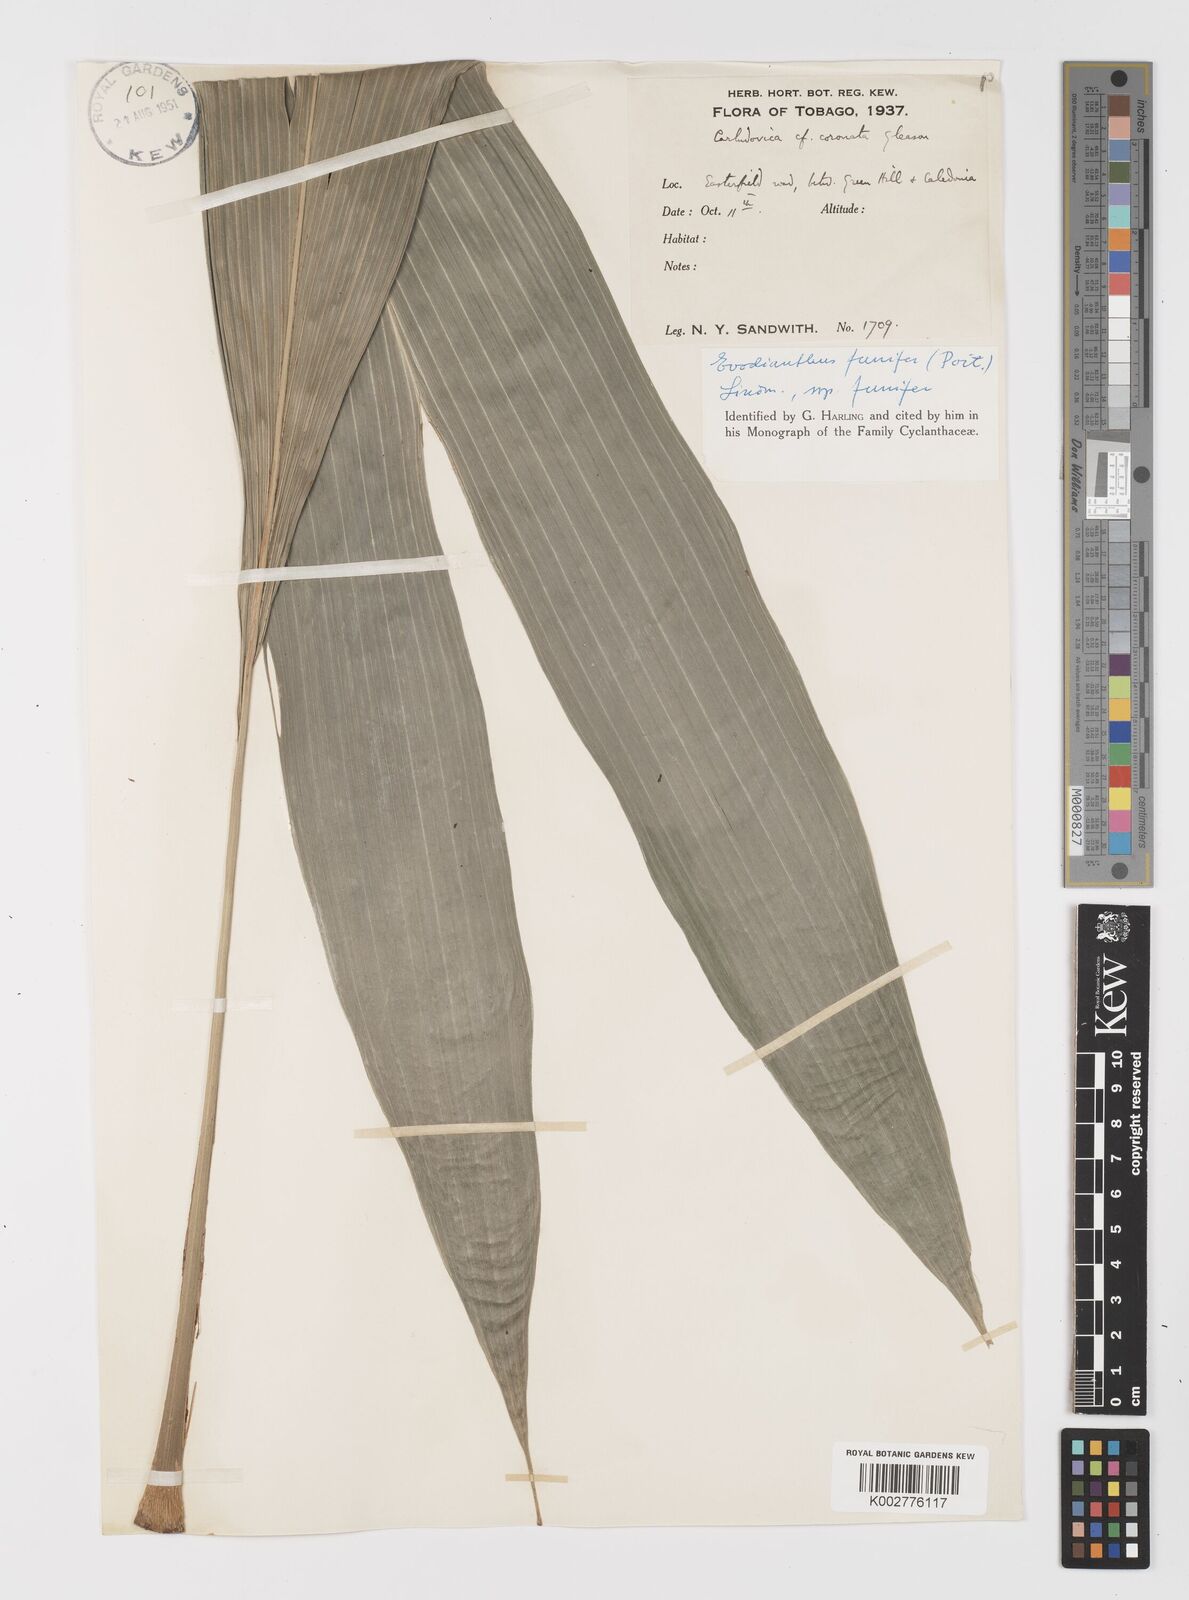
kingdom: Plantae
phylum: Tracheophyta
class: Liliopsida
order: Pandanales
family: Cyclanthaceae
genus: Evodianthus
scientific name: Evodianthus funifer
